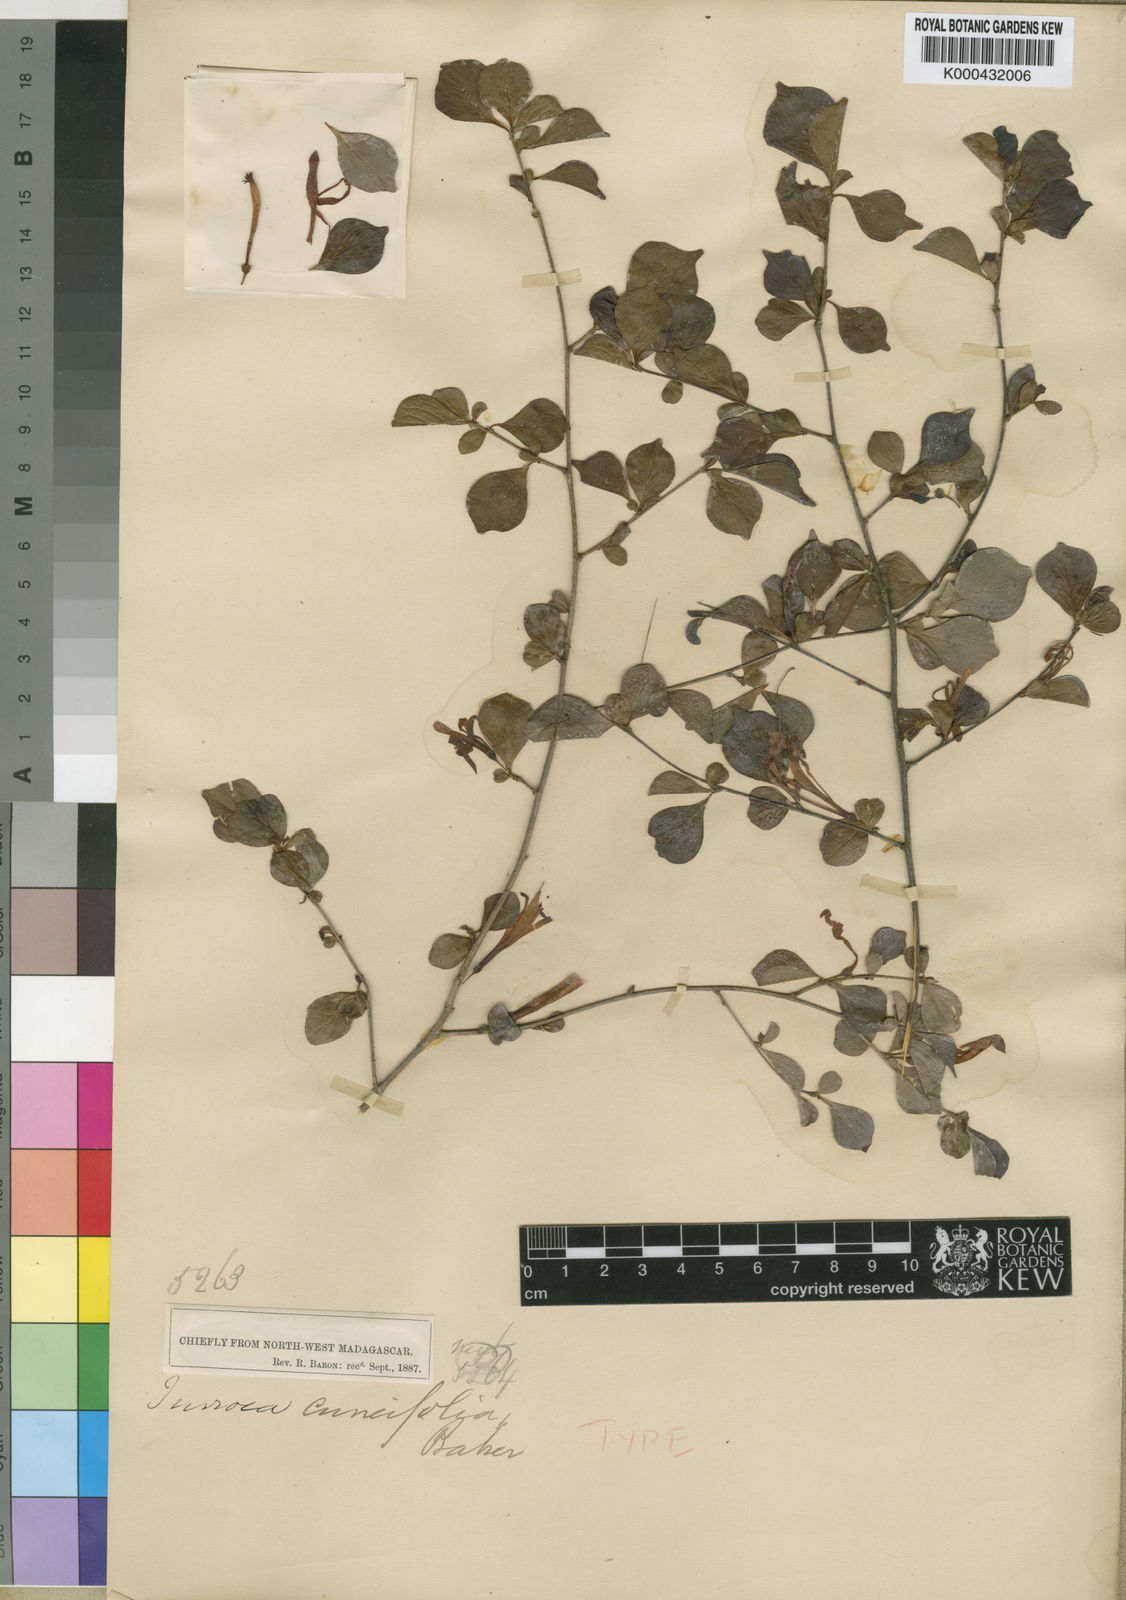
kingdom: Plantae
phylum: Tracheophyta
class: Magnoliopsida
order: Sapindales
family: Meliaceae
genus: Turraea
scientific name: Turraea pervillei
